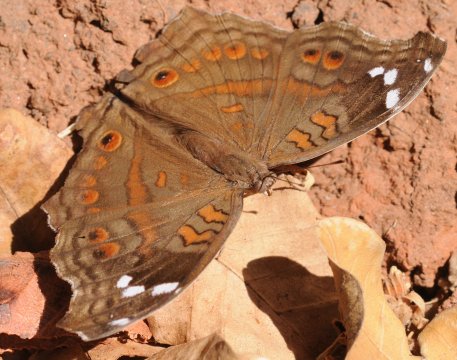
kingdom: Animalia
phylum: Arthropoda
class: Insecta
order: Lepidoptera
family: Nymphalidae
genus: Junonia
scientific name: Junonia natalica
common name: Natal Pansy
